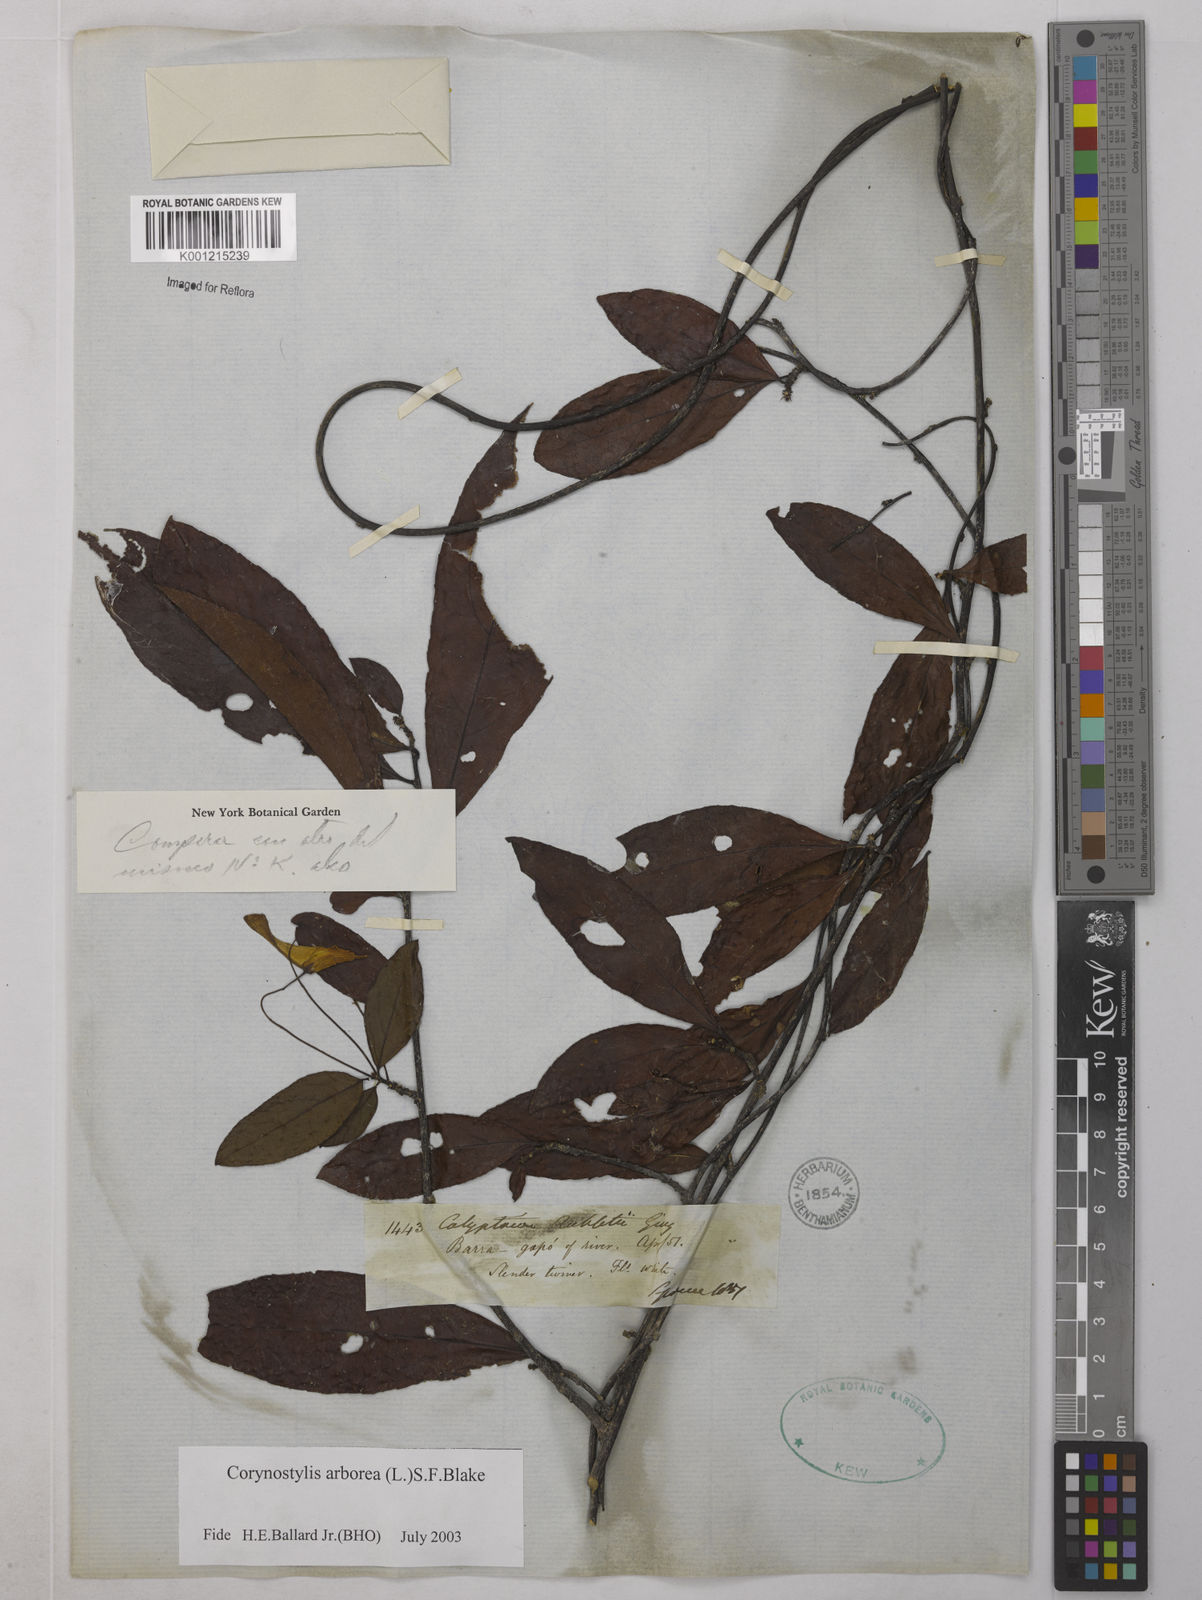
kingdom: Plantae
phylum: Tracheophyta
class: Magnoliopsida
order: Malpighiales
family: Violaceae
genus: Calyptrion
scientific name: Calyptrion arboreum
